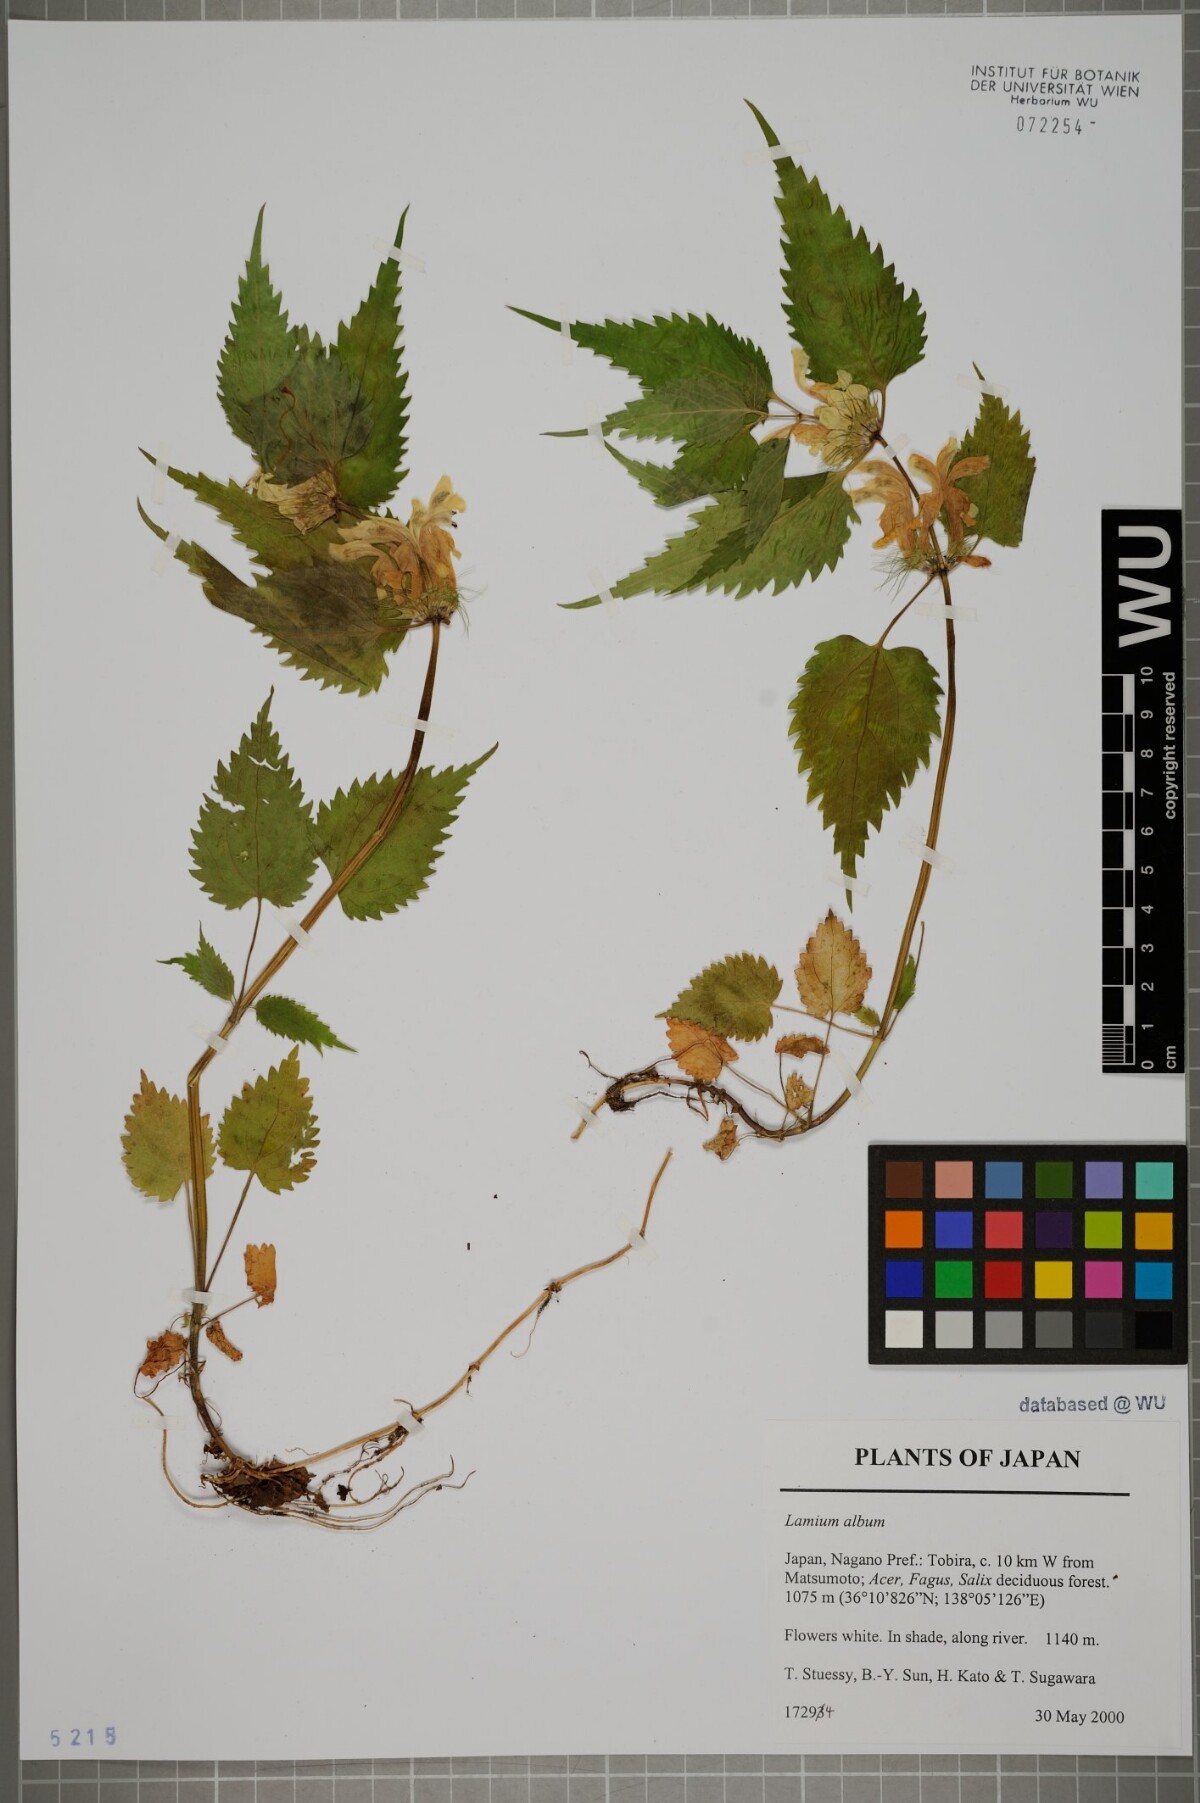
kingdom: Plantae
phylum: Tracheophyta
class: Magnoliopsida
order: Lamiales
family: Lamiaceae
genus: Lamium
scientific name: Lamium album
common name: White dead-nettle
